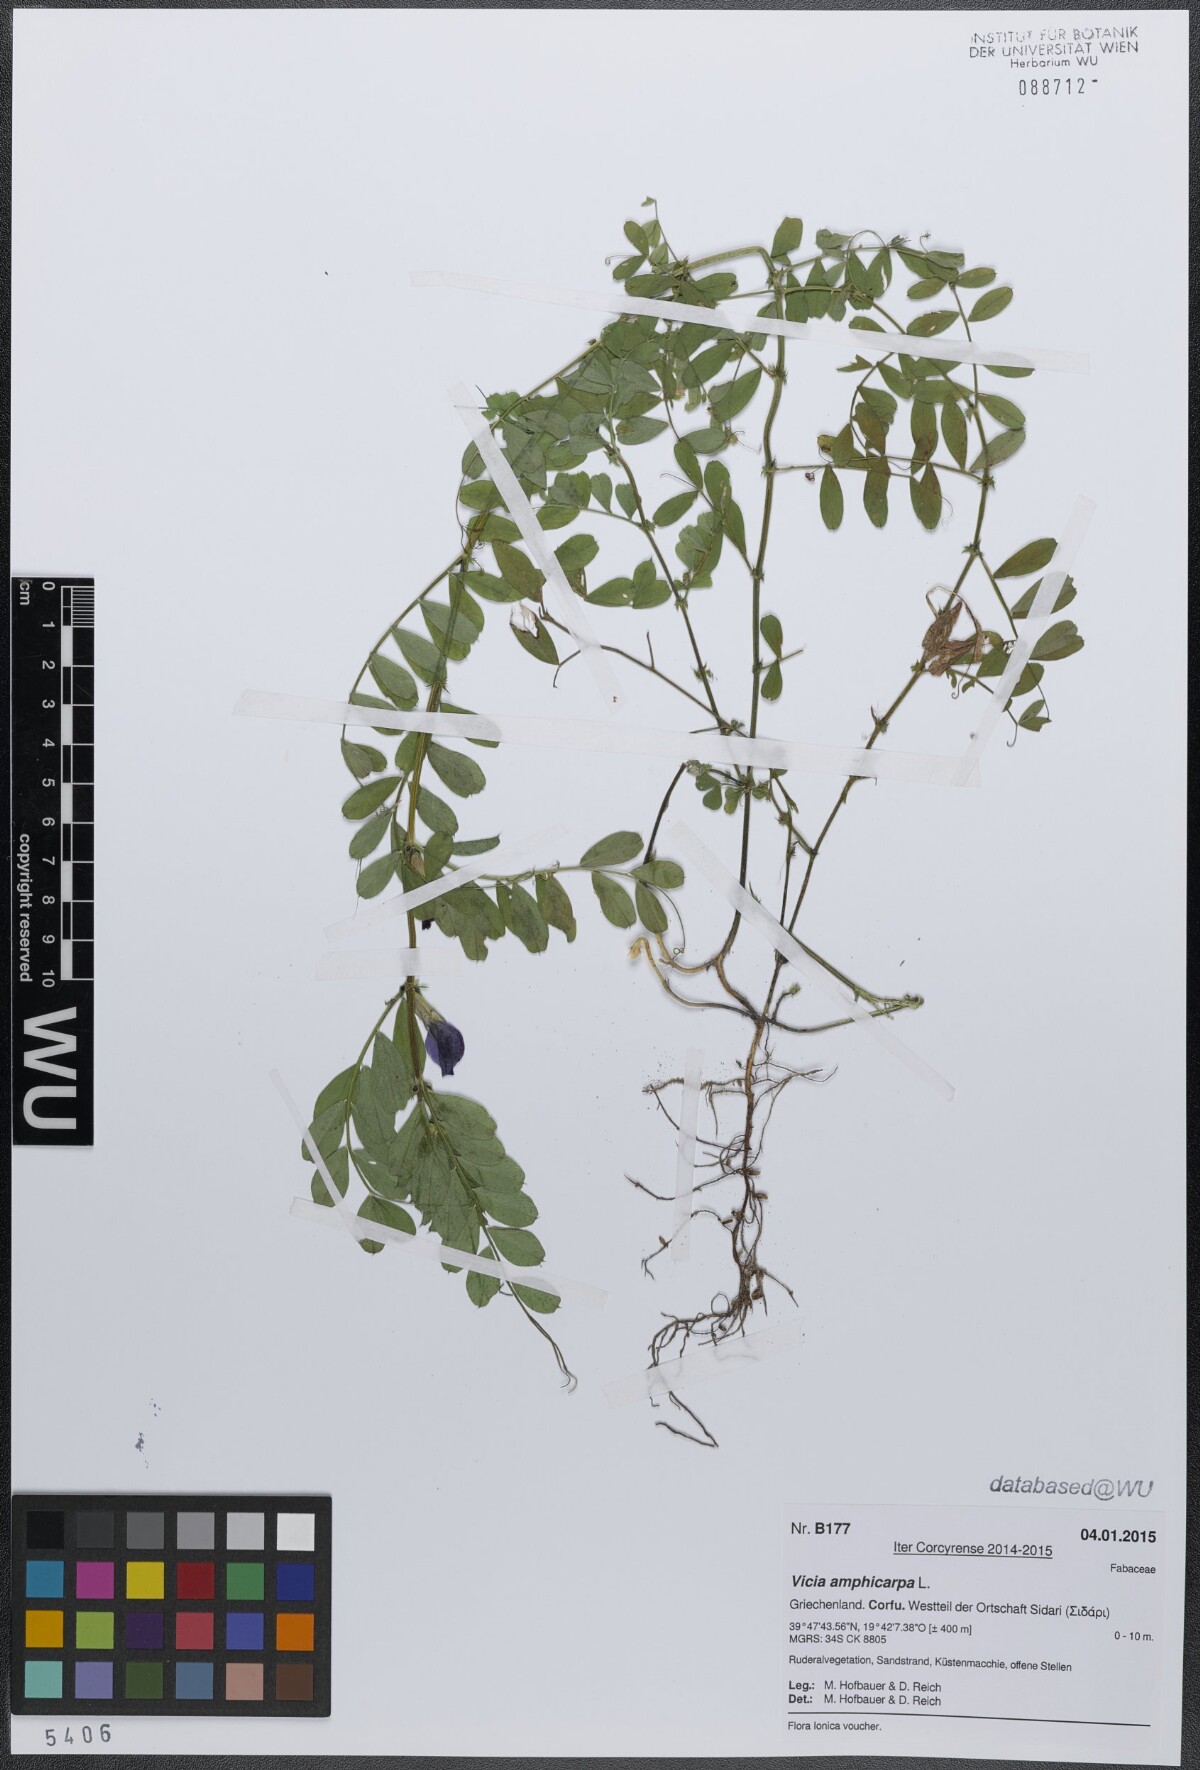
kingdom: Plantae
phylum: Tracheophyta
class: Magnoliopsida
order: Fabales
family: Fabaceae
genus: Vicia
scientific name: Vicia sativa
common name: Garden vetch
